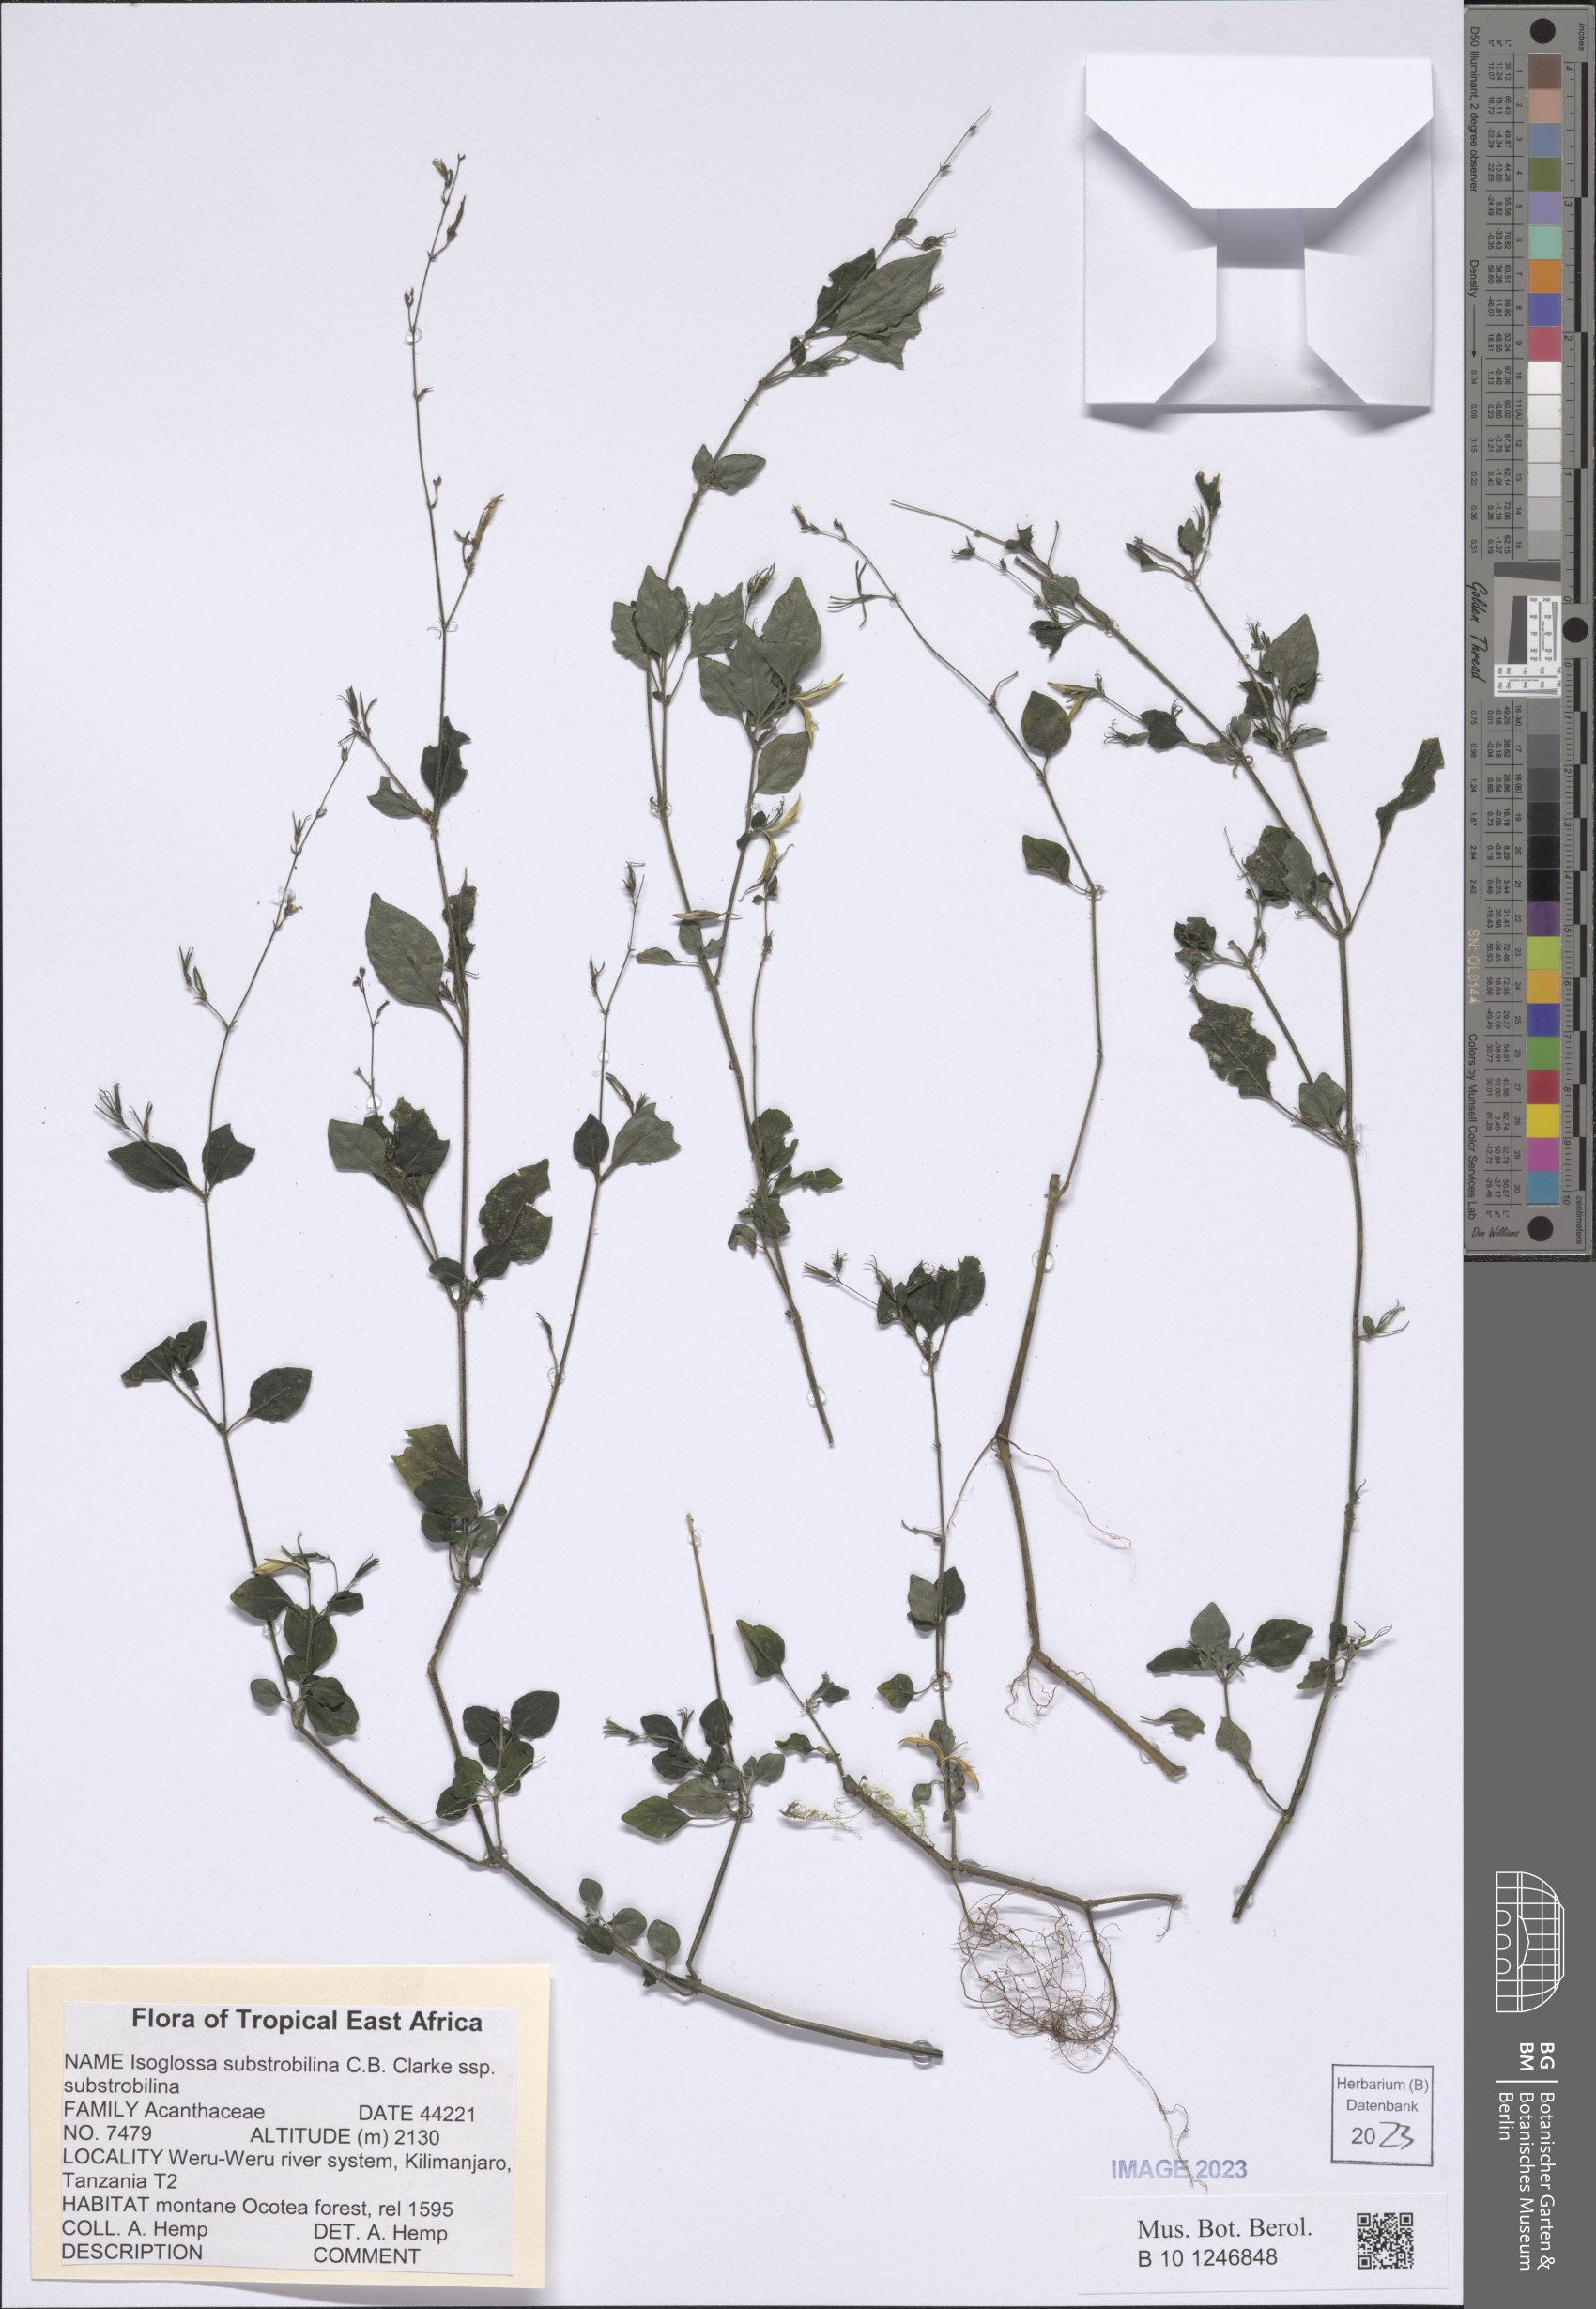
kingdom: Plantae
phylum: Tracheophyta
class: Magnoliopsida
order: Lamiales
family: Acanthaceae
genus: Isoglossa
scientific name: Isoglossa substrobilina
